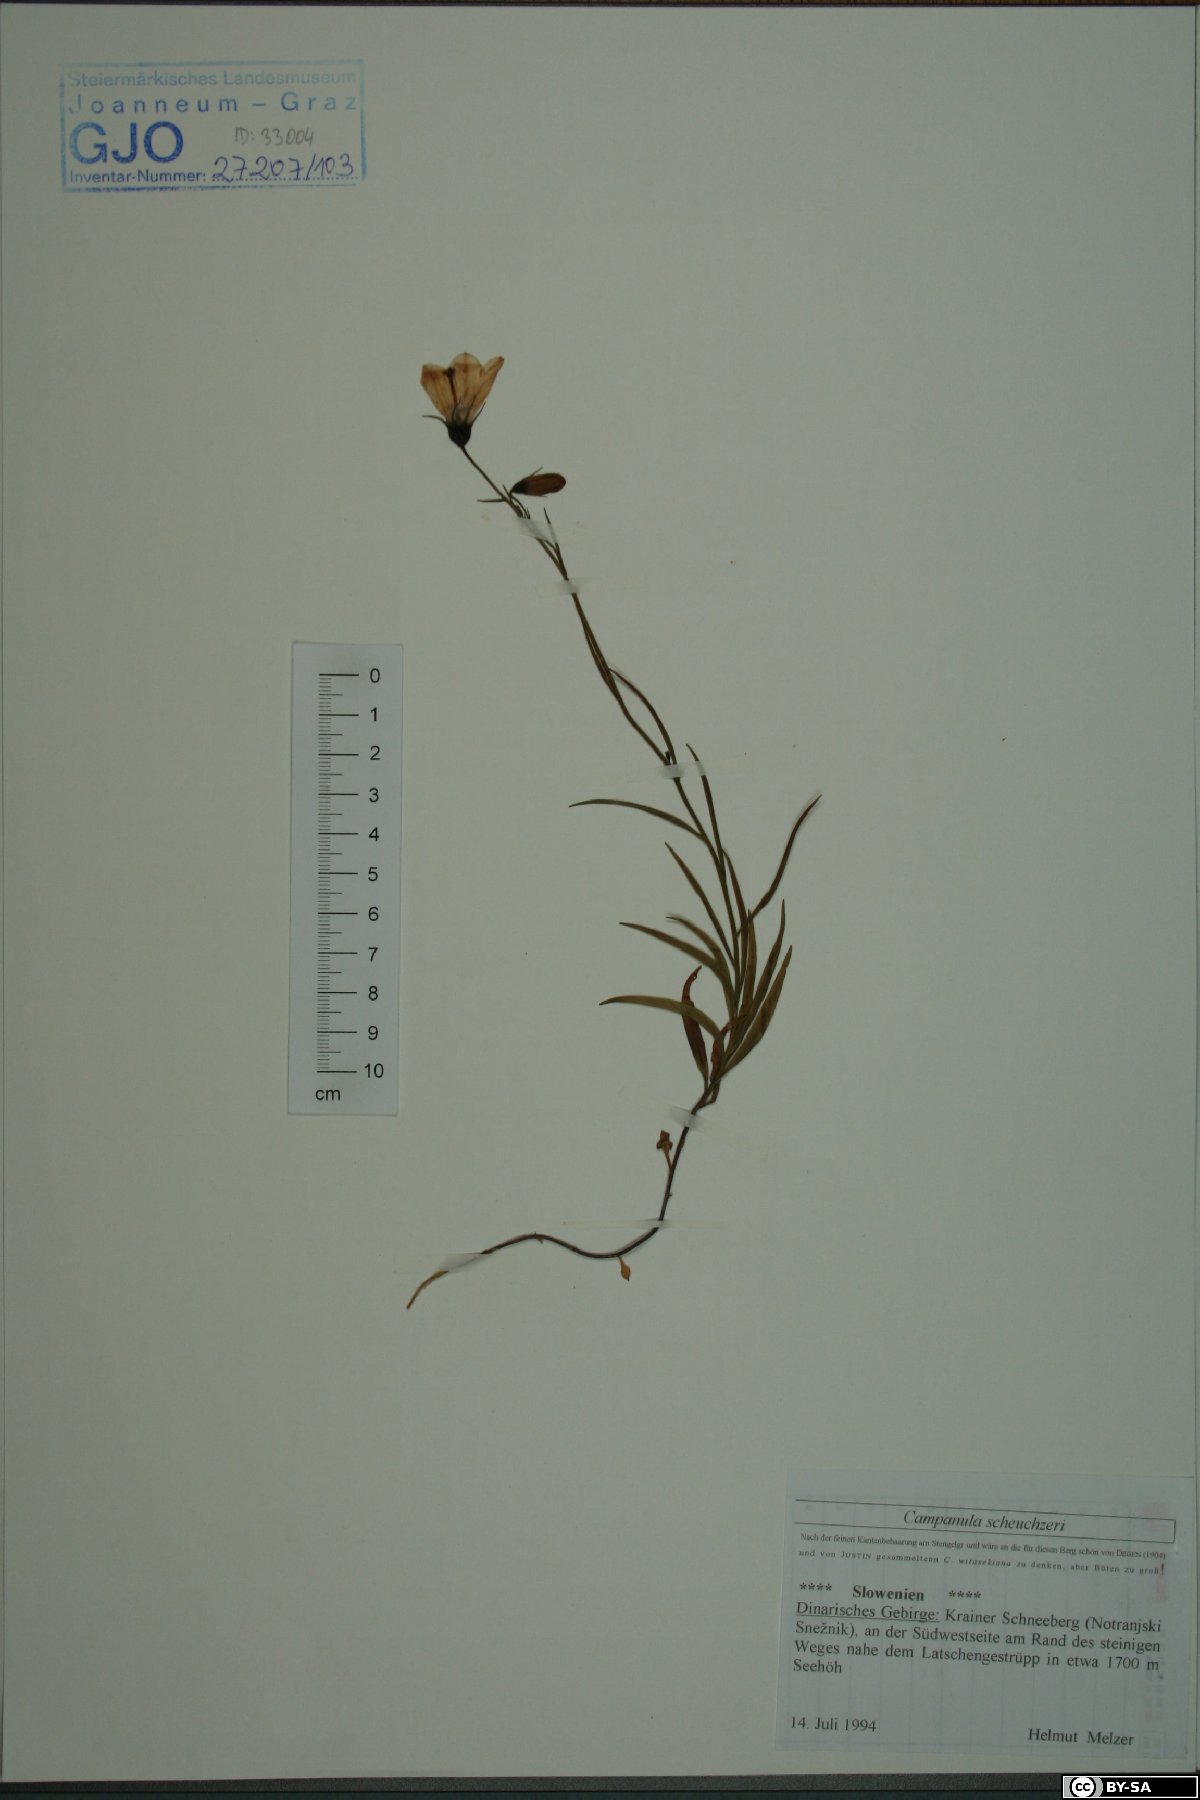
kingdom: Plantae
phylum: Tracheophyta
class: Magnoliopsida
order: Asterales
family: Campanulaceae
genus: Campanula
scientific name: Campanula scheuchzeri
